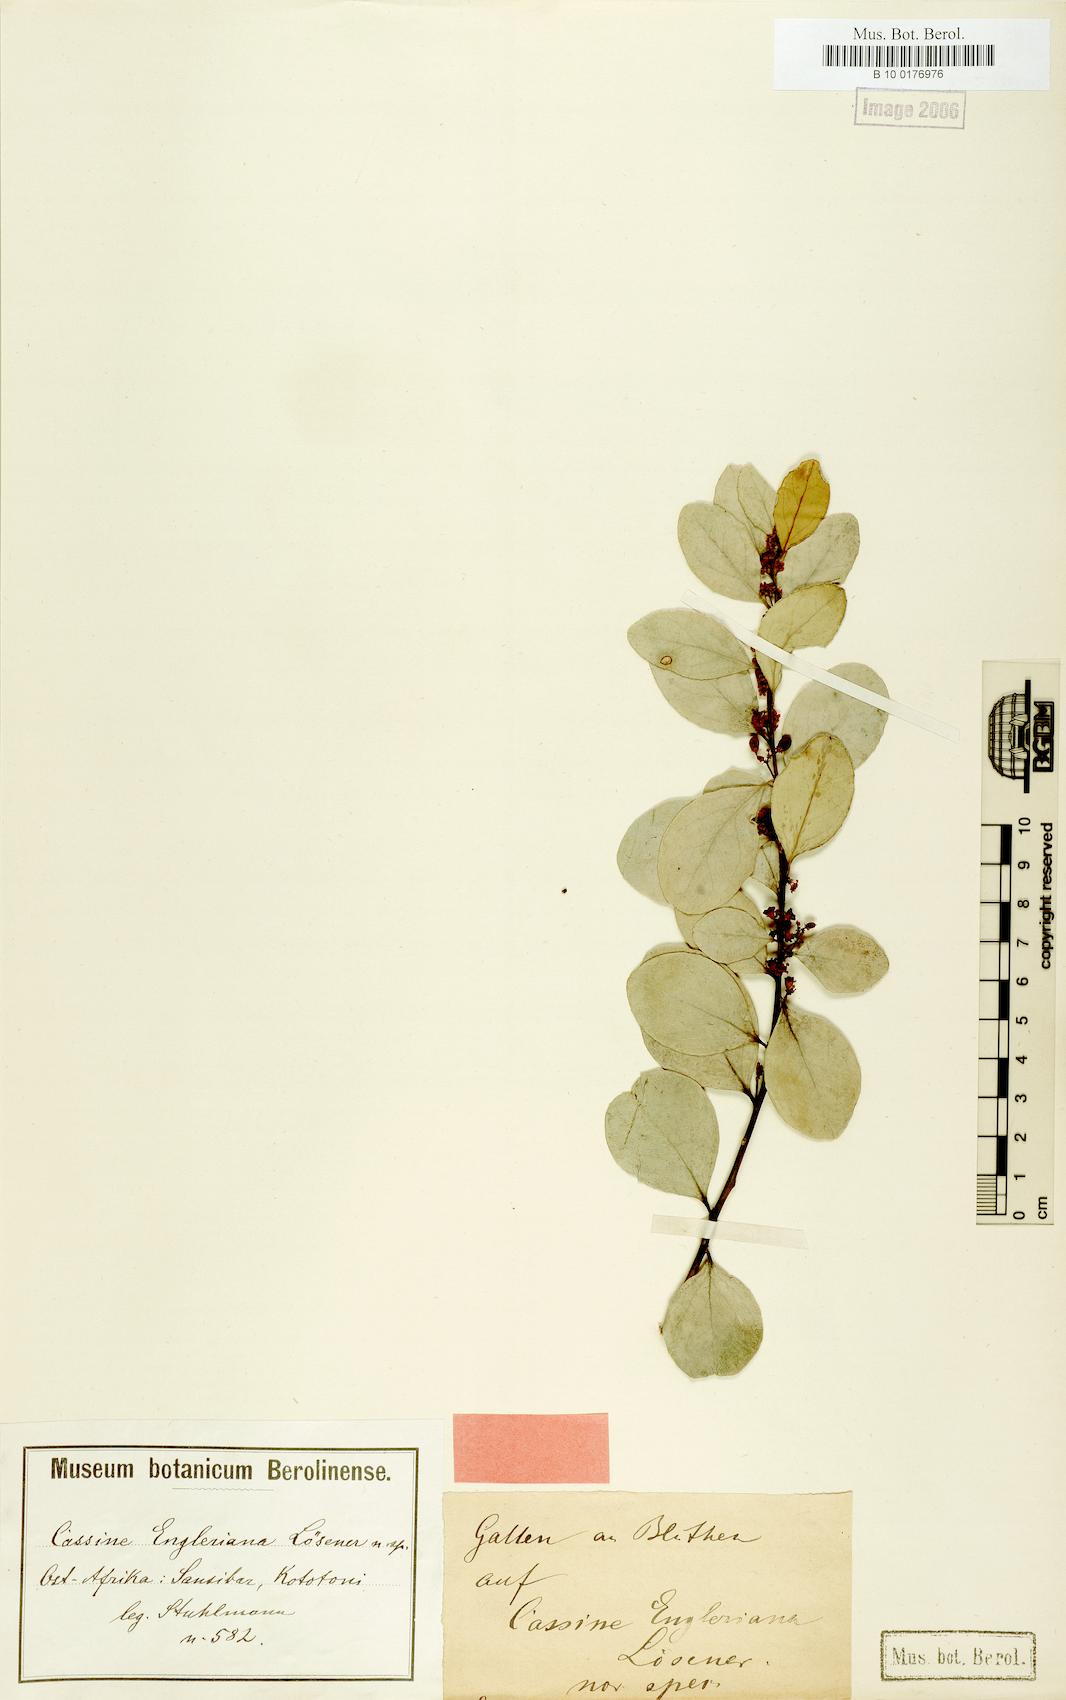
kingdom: Plantae
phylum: Tracheophyta
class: Magnoliopsida
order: Celastrales
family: Celastraceae
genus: Mystroxylon
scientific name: Mystroxylon aethiopicum
